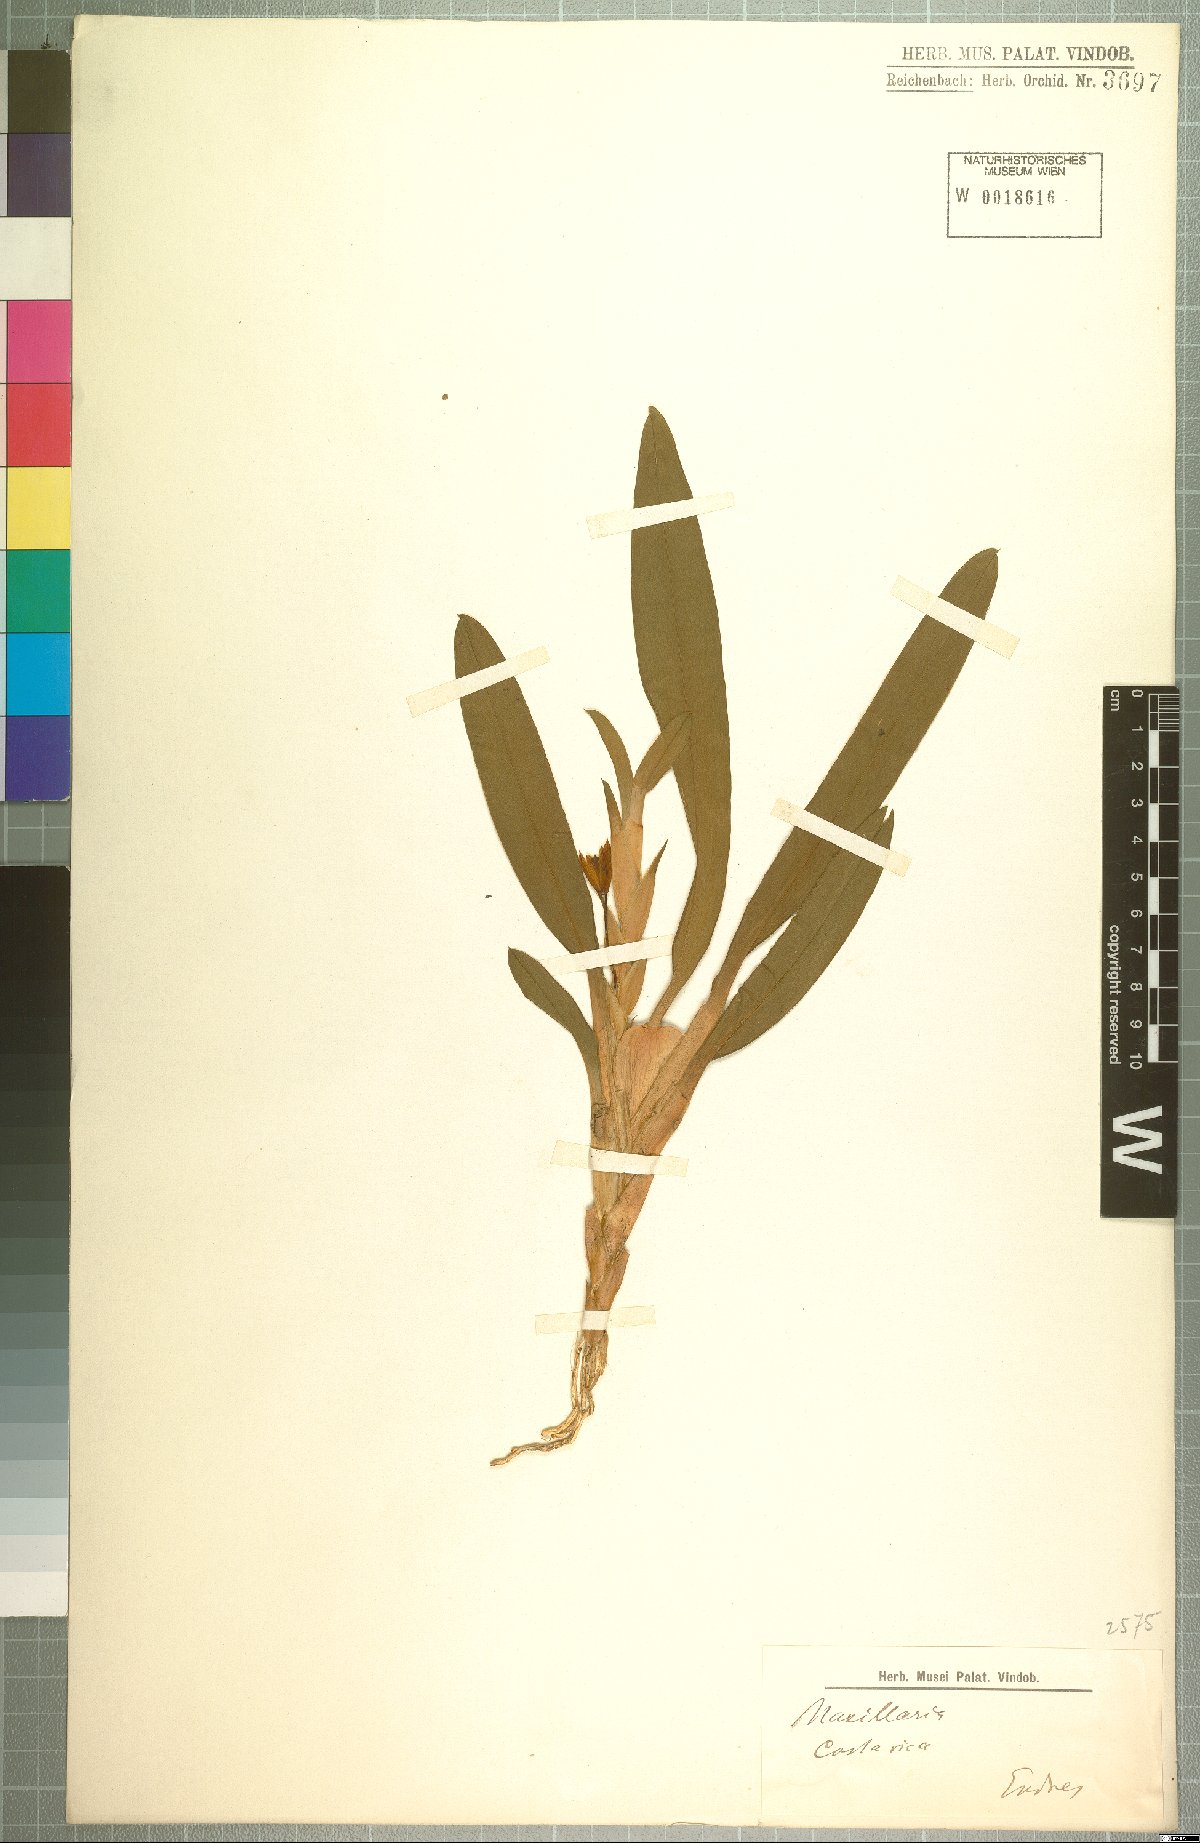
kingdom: Plantae
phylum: Tracheophyta
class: Liliopsida
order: Asparagales
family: Orchidaceae
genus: Maxillaria
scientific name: Maxillaria
